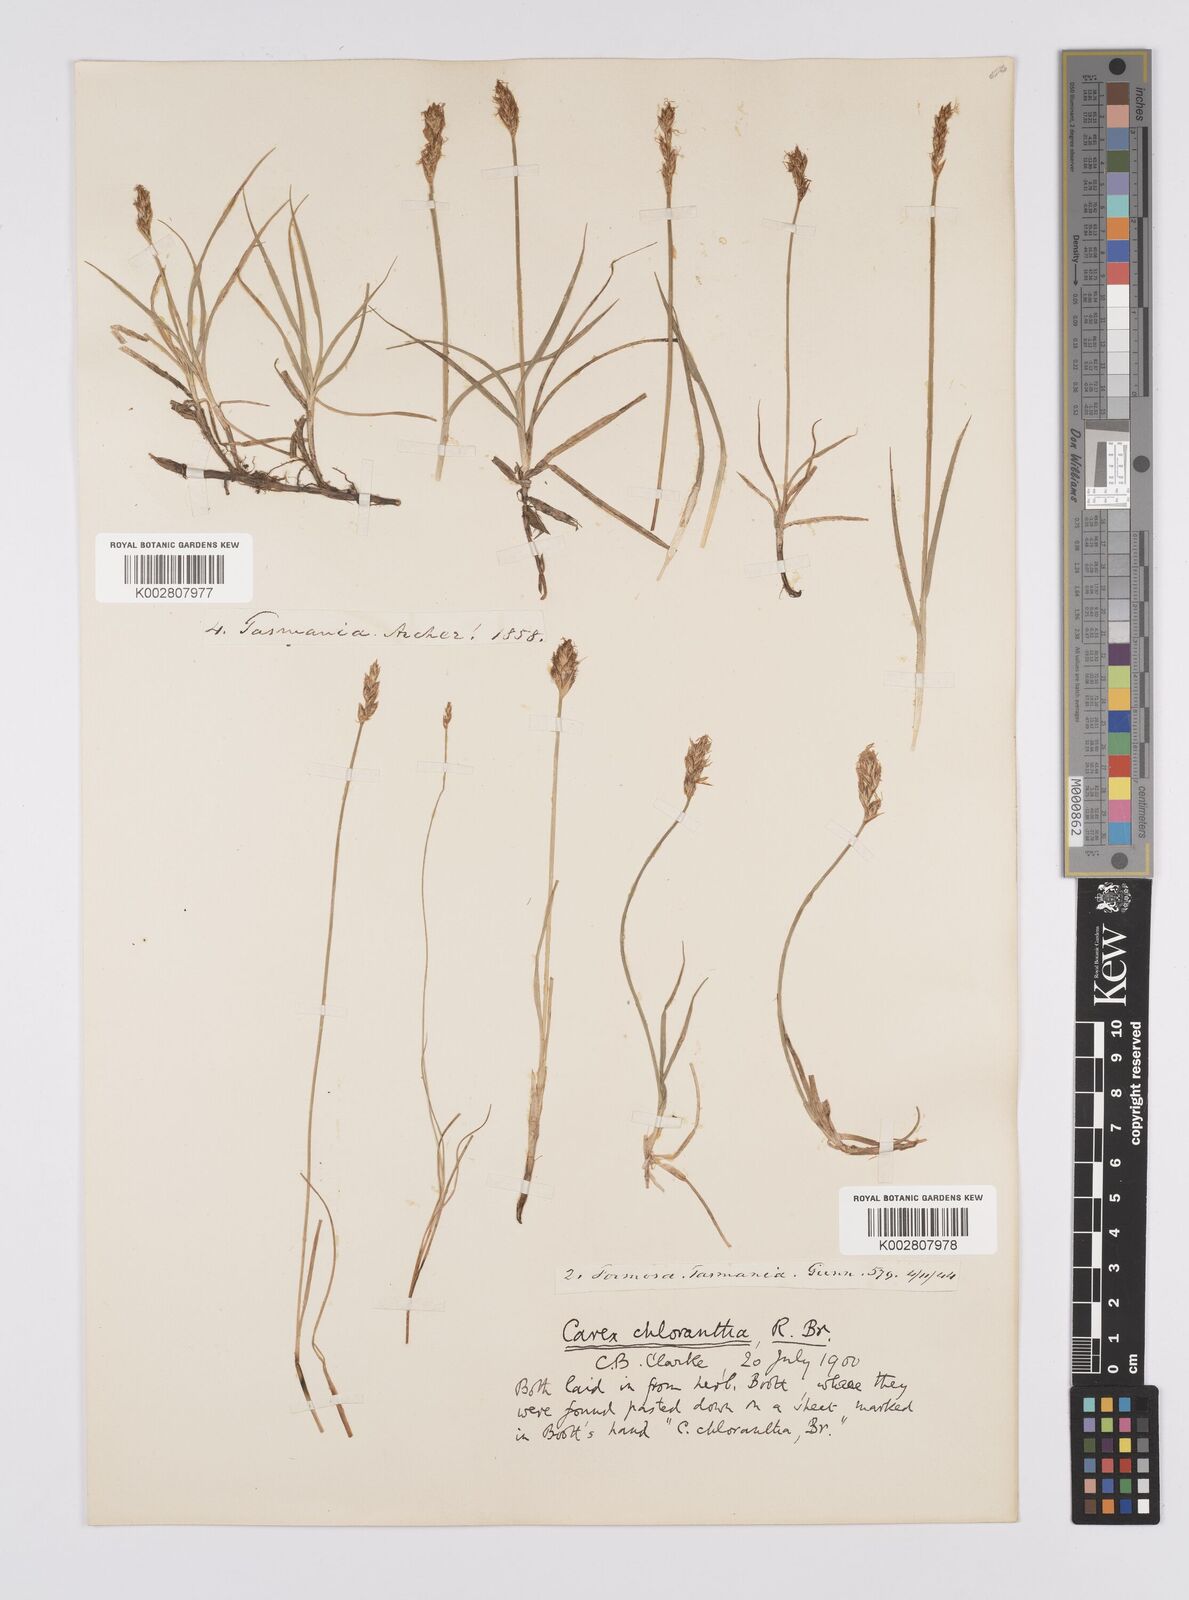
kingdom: Plantae
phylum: Tracheophyta
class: Liliopsida
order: Poales
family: Cyperaceae
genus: Carex
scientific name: Carex chlorantha
